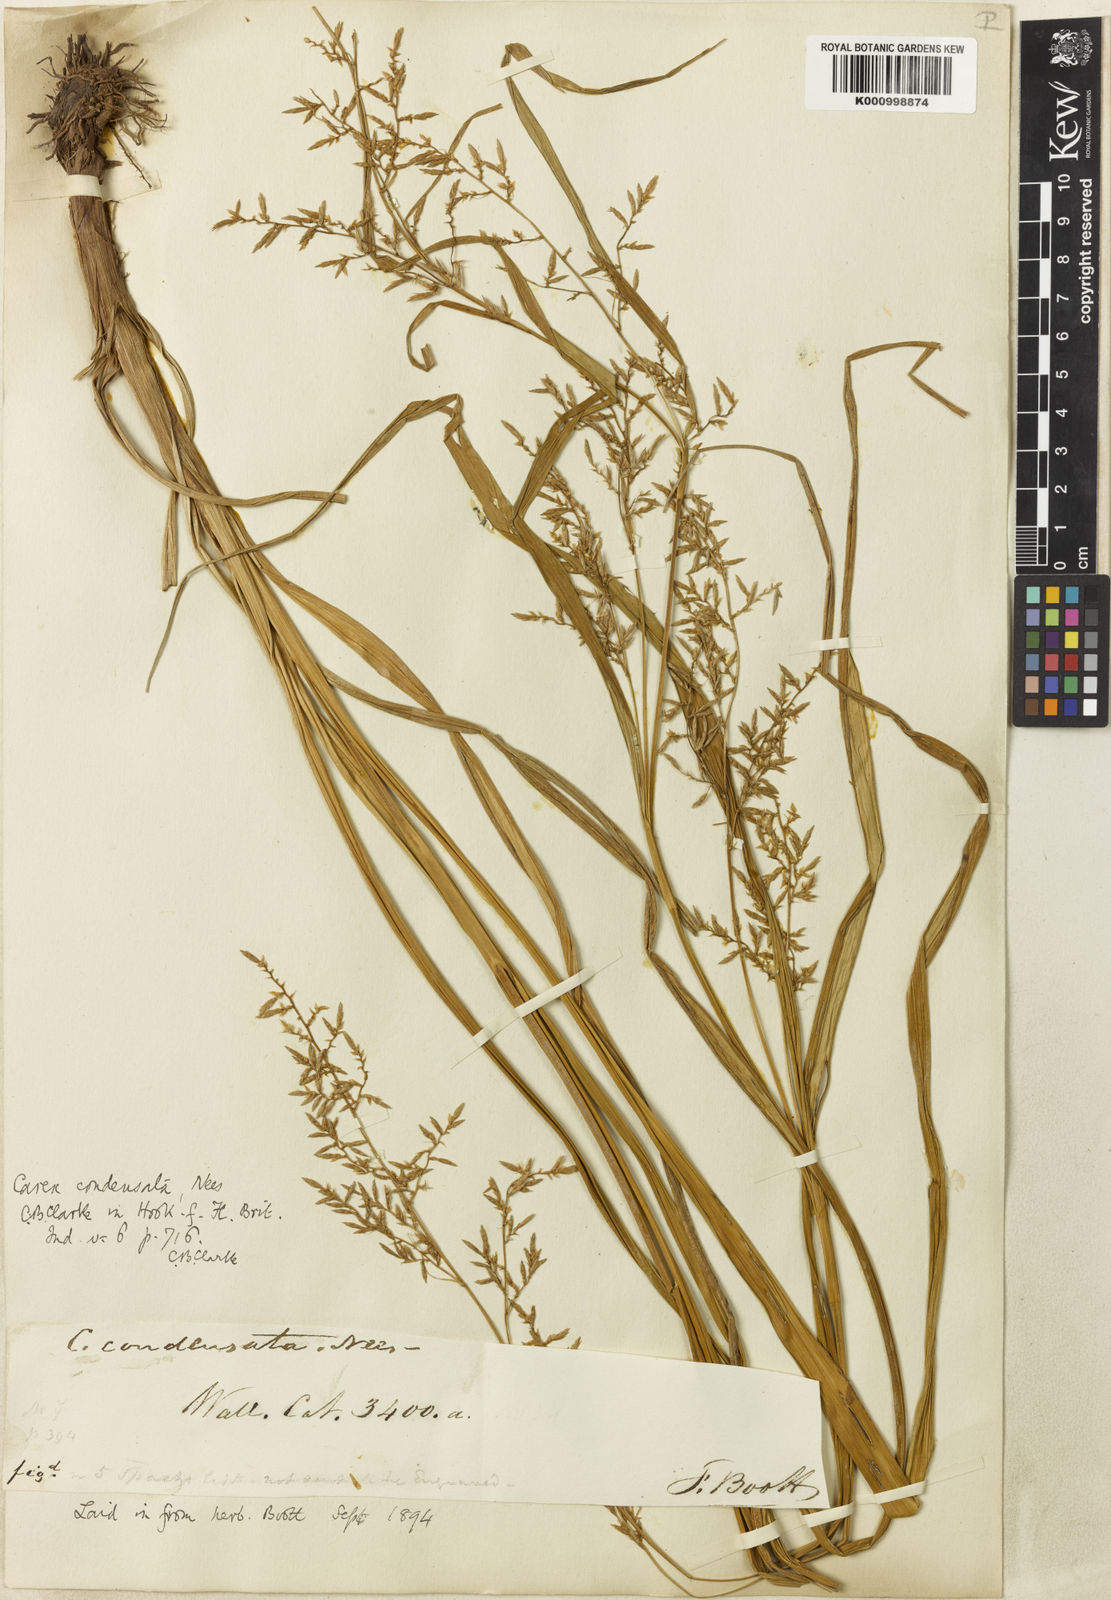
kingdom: Plantae
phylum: Tracheophyta
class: Liliopsida
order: Poales
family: Cyperaceae
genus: Carex
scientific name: Carex condensata
